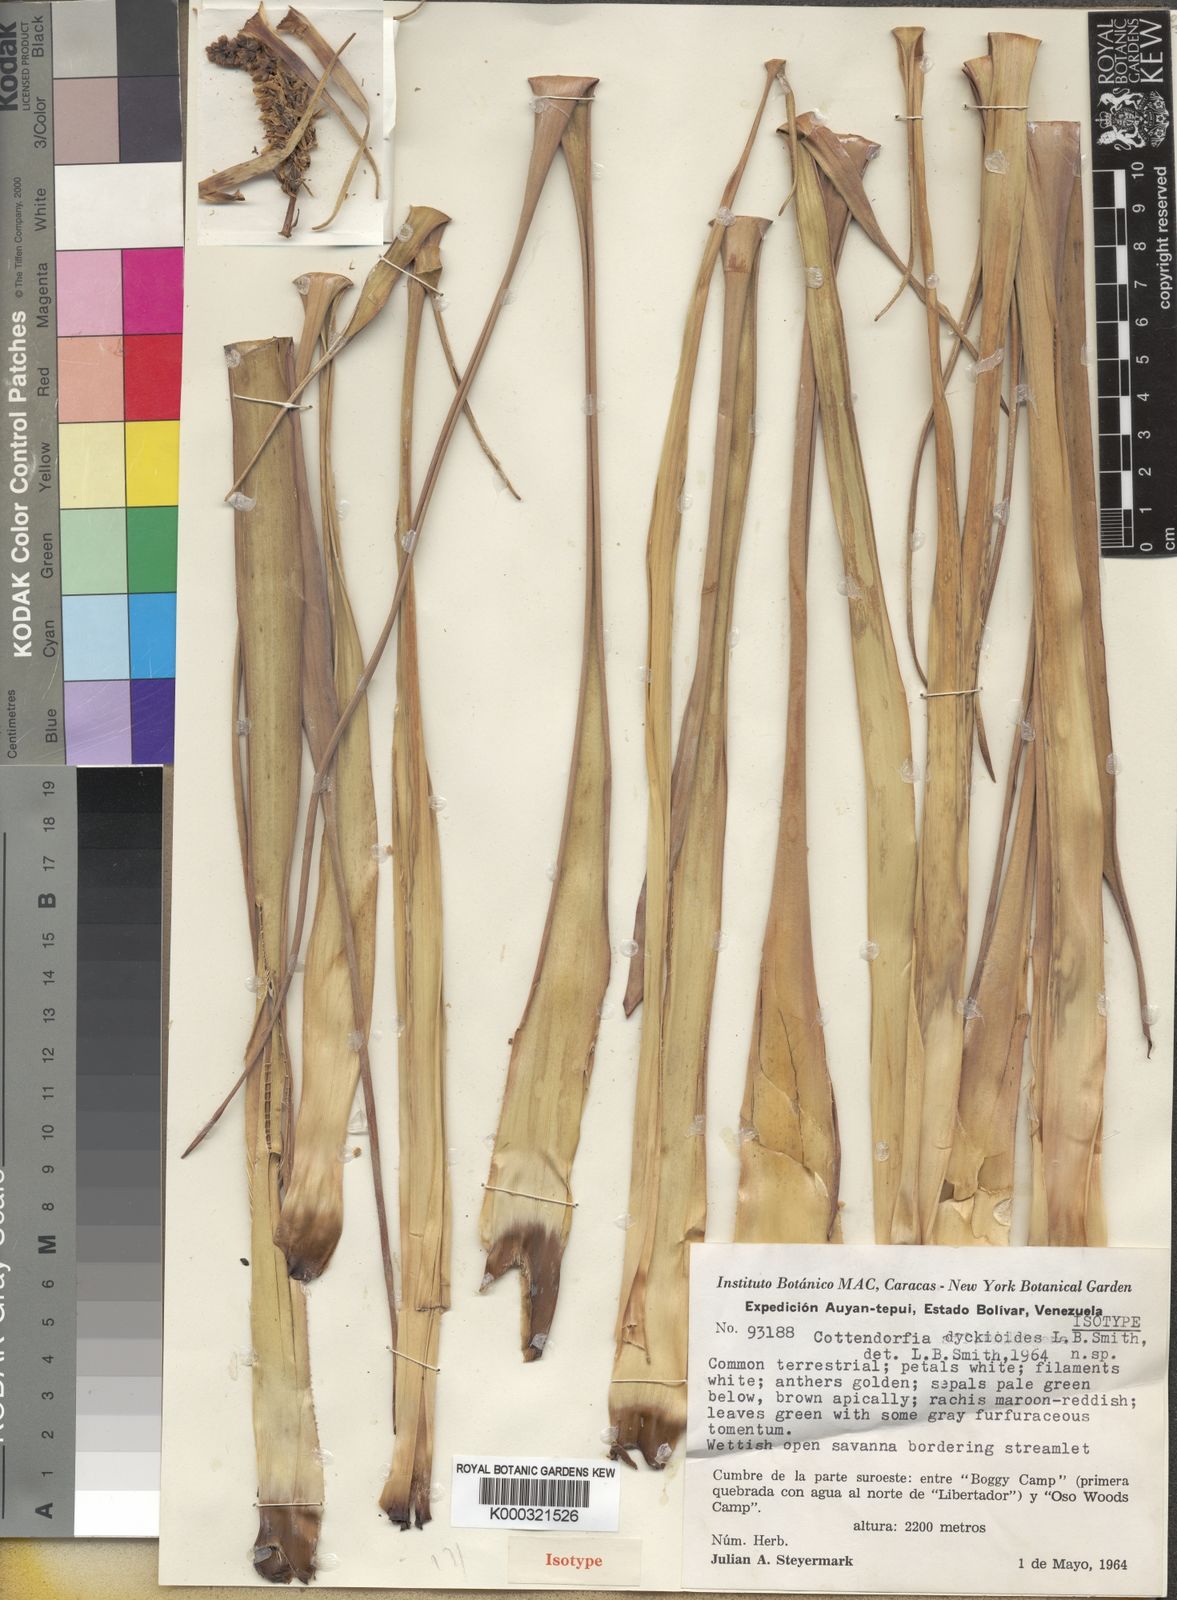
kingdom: Plantae
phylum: Tracheophyta
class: Liliopsida
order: Poales
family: Bromeliaceae
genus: Lindmania
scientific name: Lindmania dyckioides
